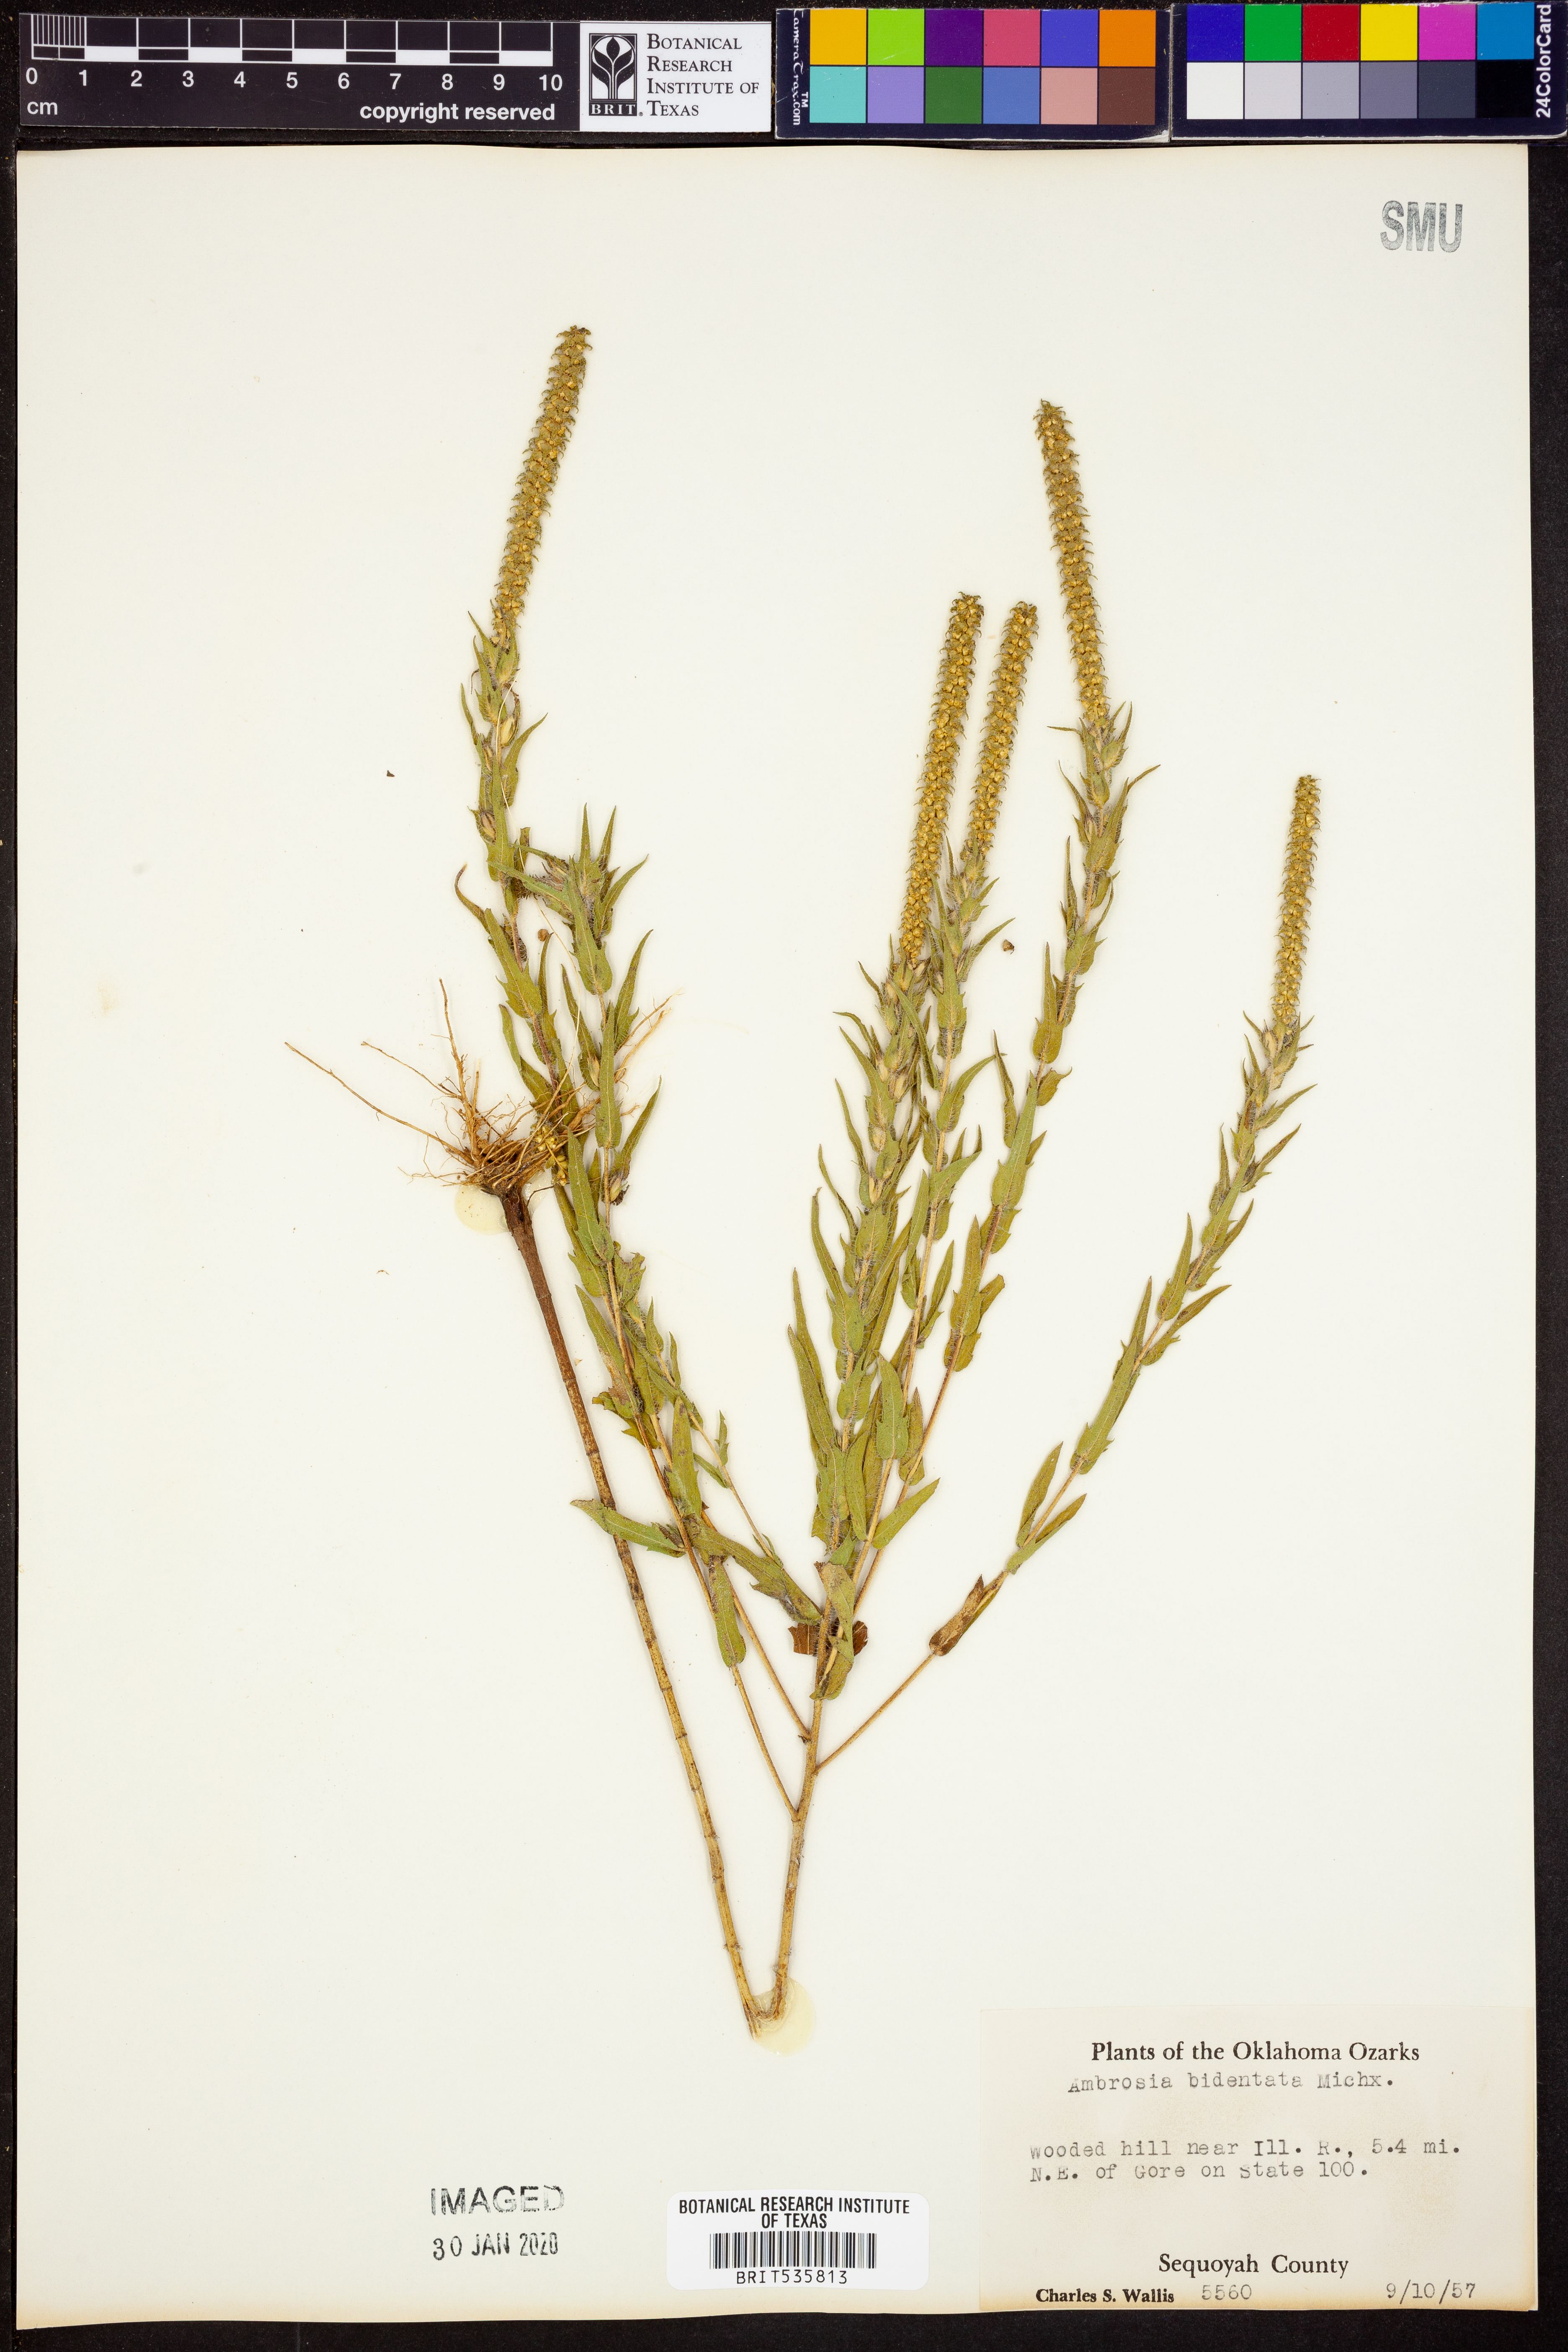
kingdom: Plantae
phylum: Tracheophyta
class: Magnoliopsida
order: Asterales
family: Asteraceae
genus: Ambrosia
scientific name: Ambrosia bidentata
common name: Southern ragweed
